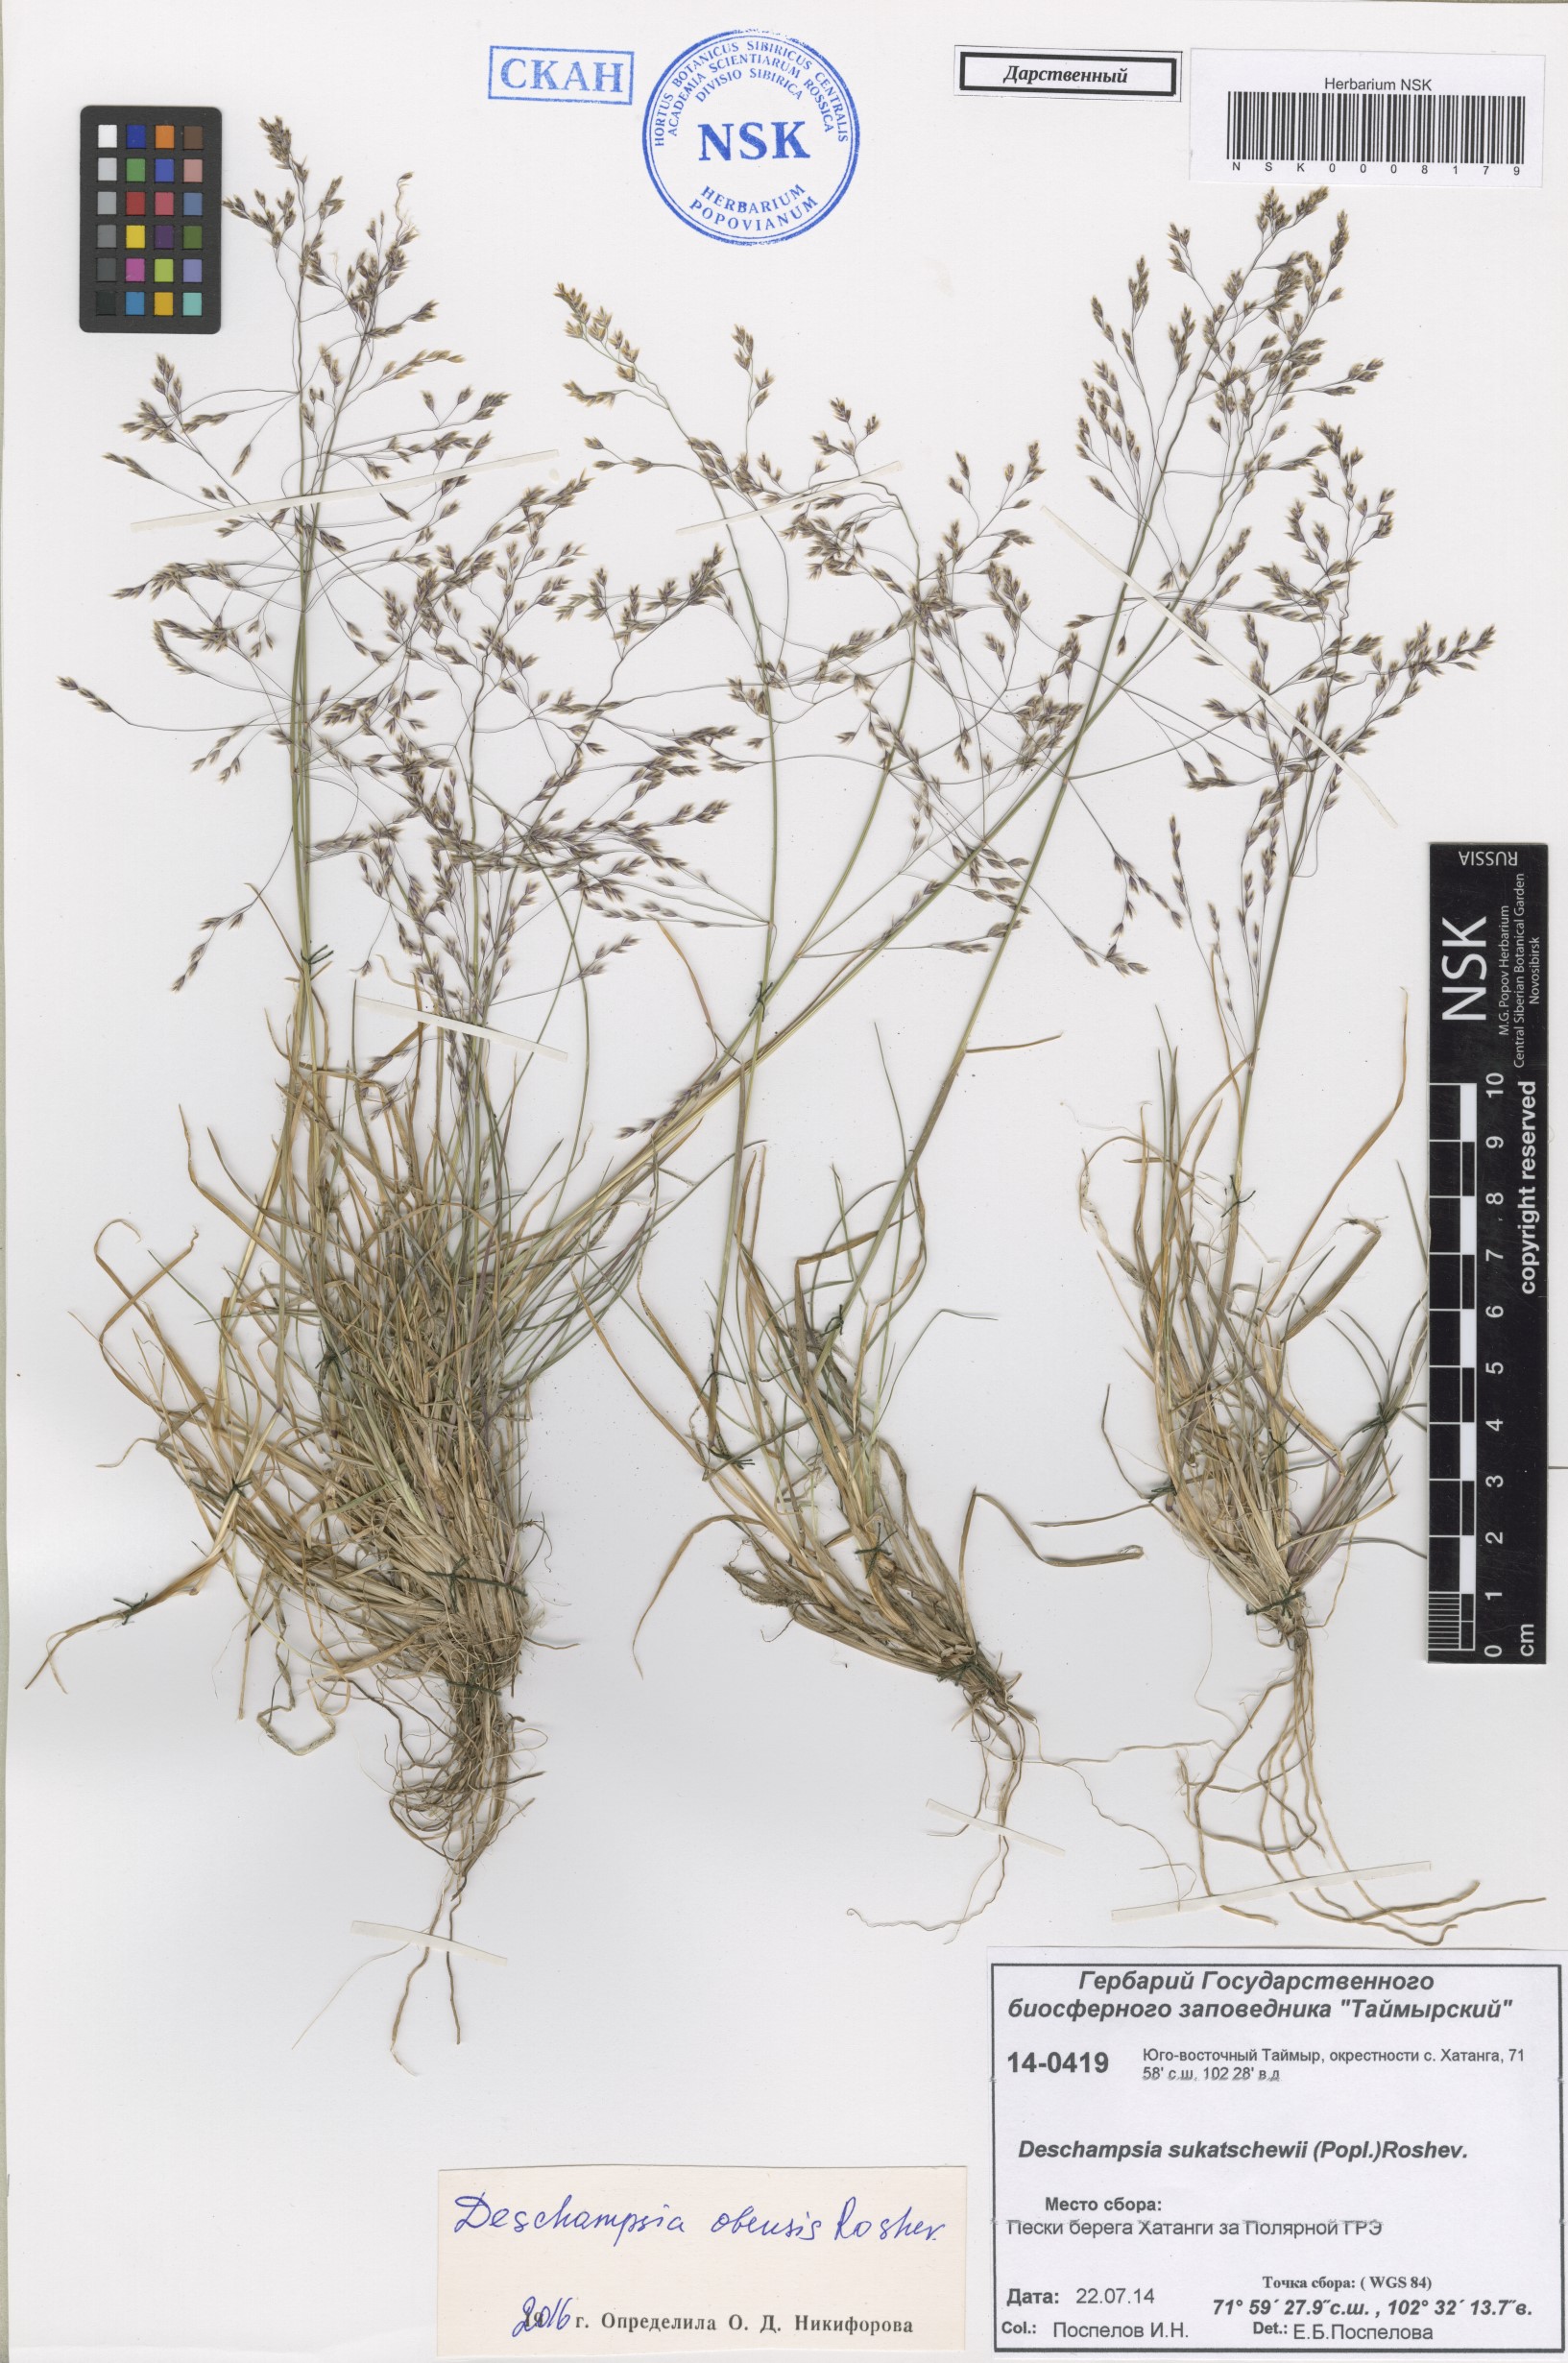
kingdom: Plantae
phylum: Tracheophyta
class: Liliopsida
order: Poales
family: Poaceae
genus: Deschampsia
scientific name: Deschampsia cespitosa
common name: Tufted hair-grass
